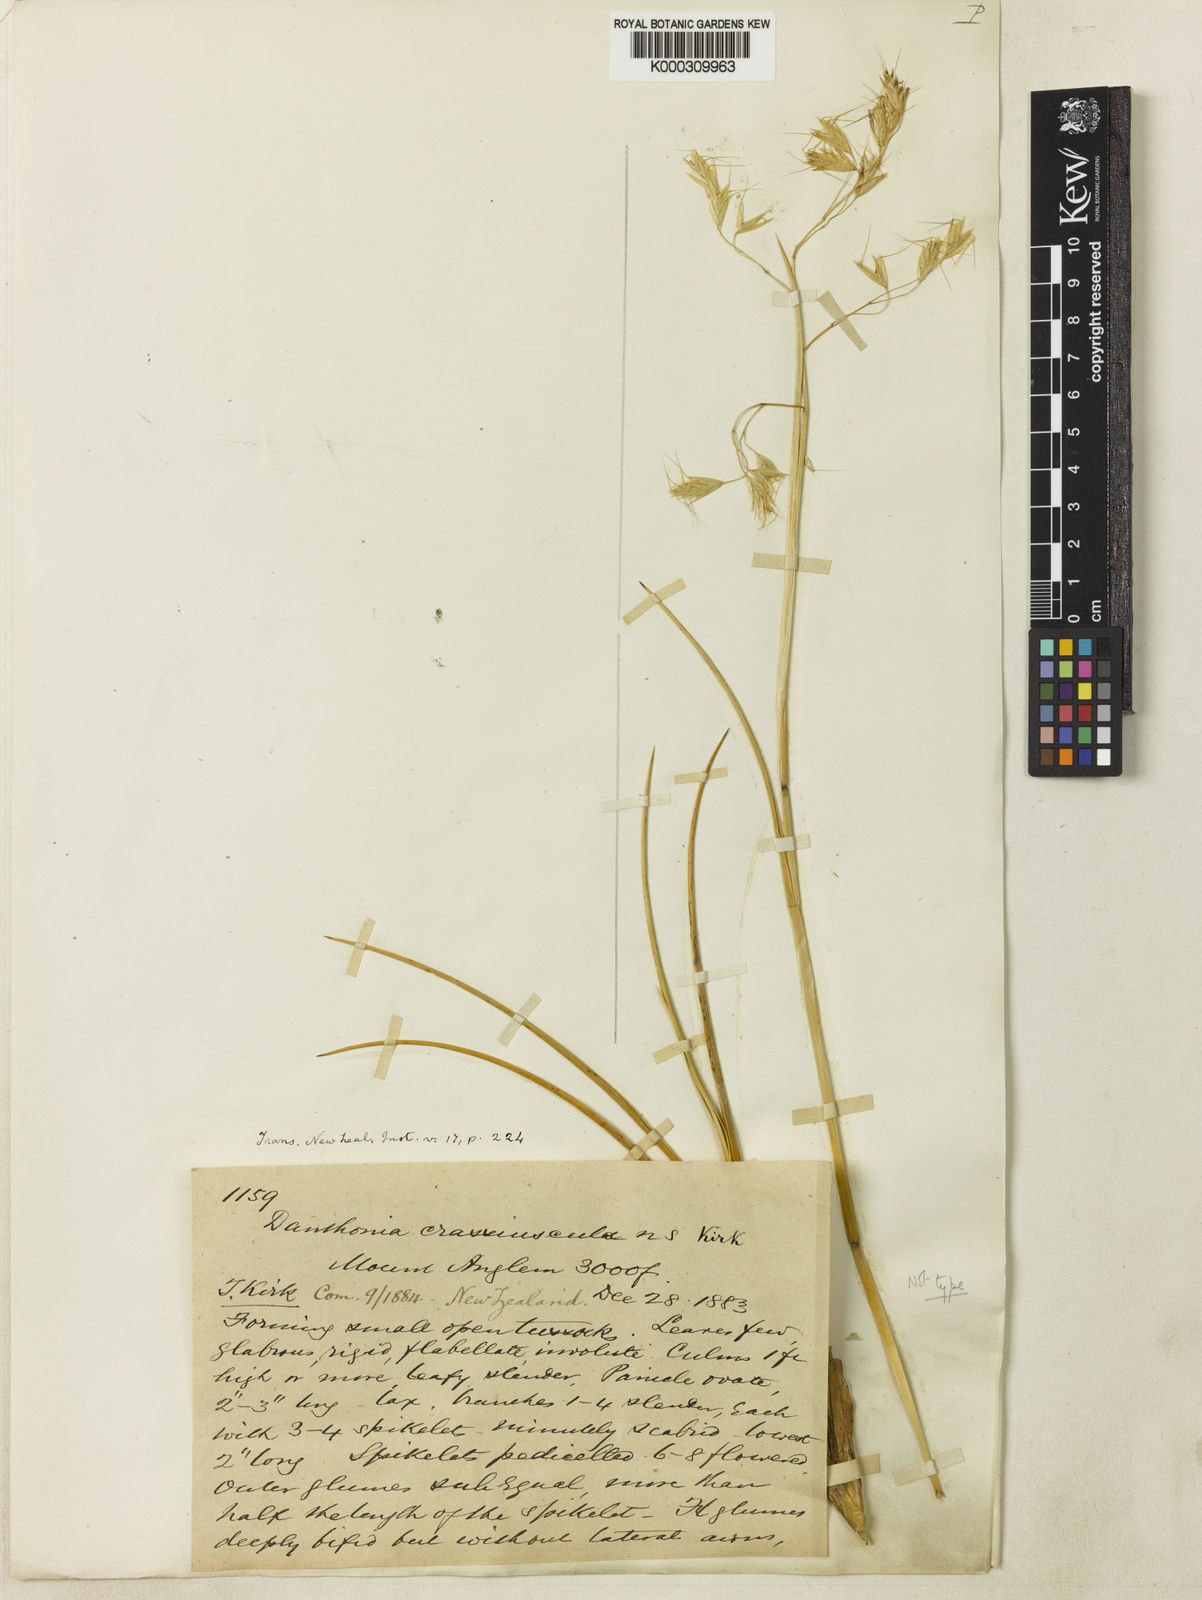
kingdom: Plantae
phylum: Tracheophyta
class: Liliopsida
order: Poales
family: Poaceae
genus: Chionochloa
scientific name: Chionochloa crassiuscula
